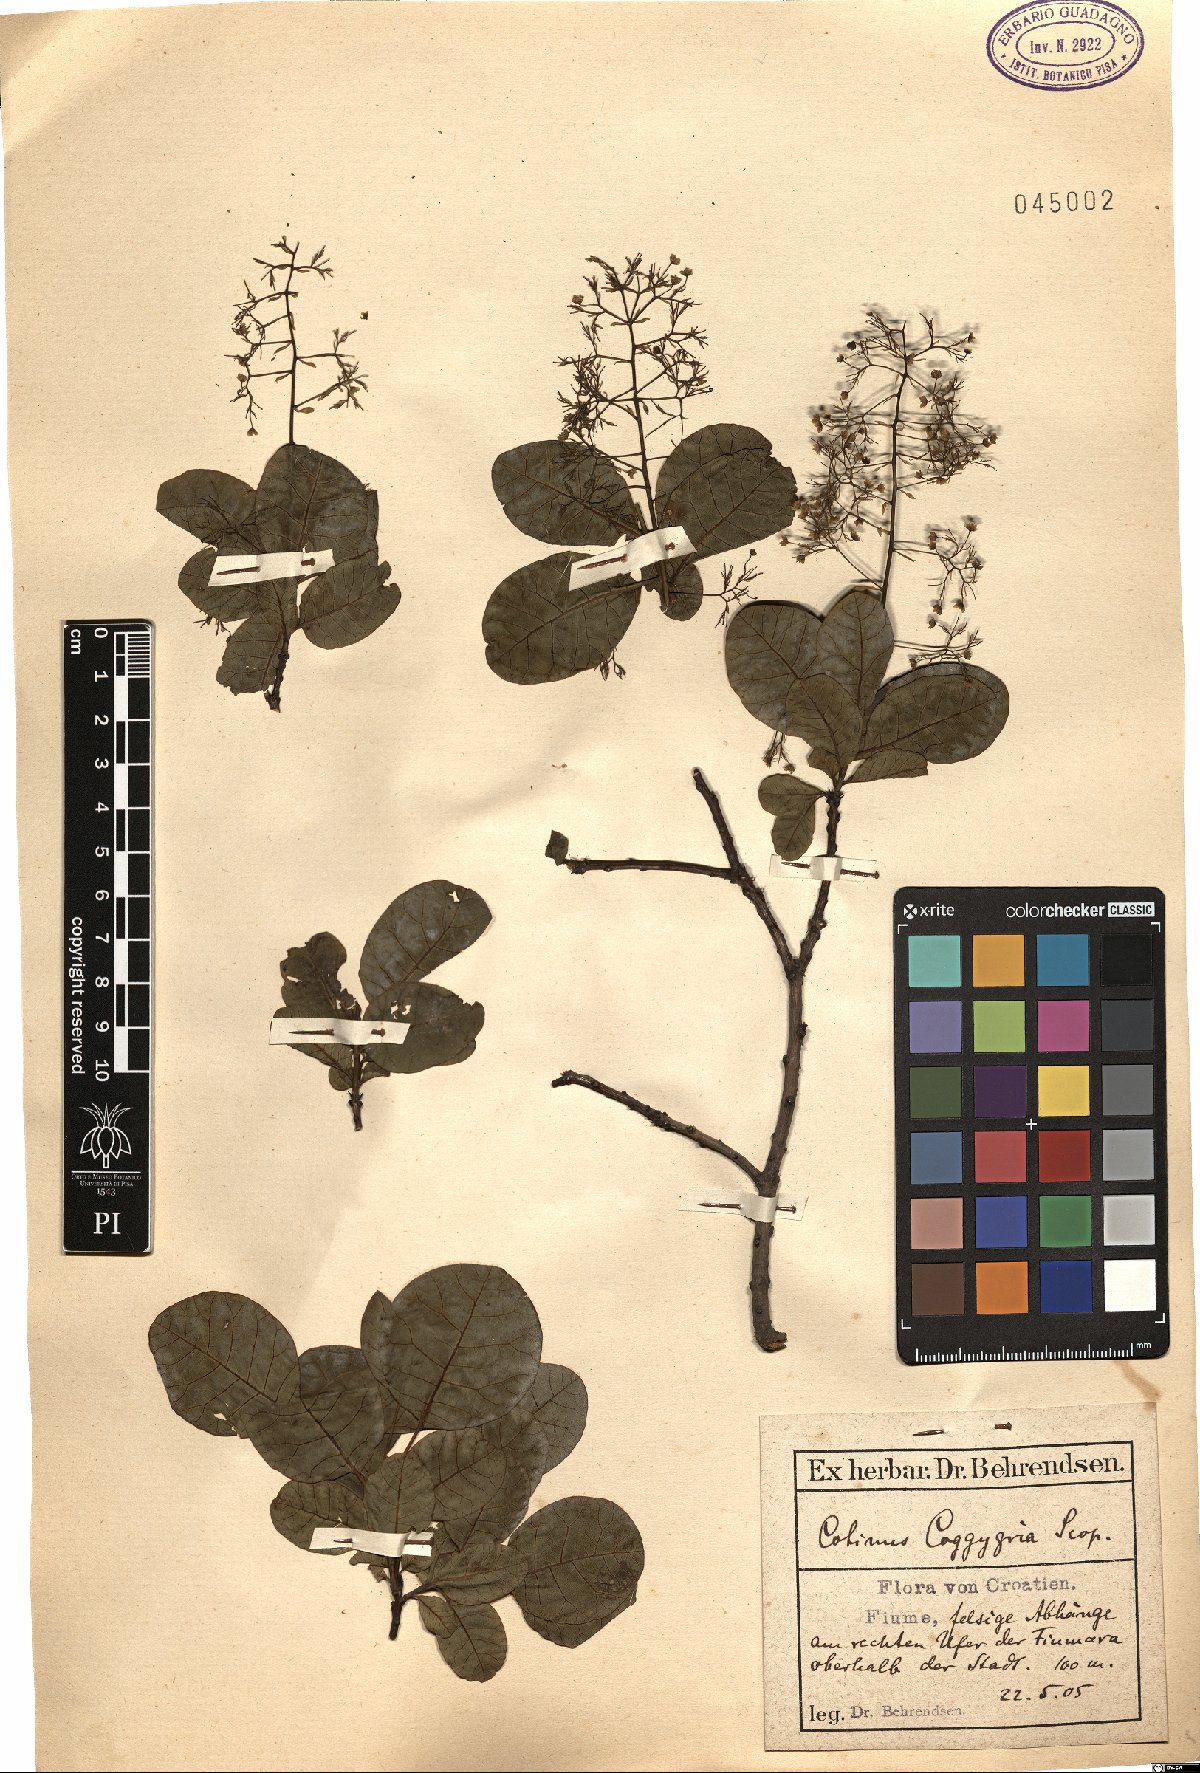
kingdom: Plantae
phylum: Tracheophyta
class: Magnoliopsida
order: Sapindales
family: Anacardiaceae
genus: Cotinus
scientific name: Cotinus coggygria
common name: Smoke-tree
